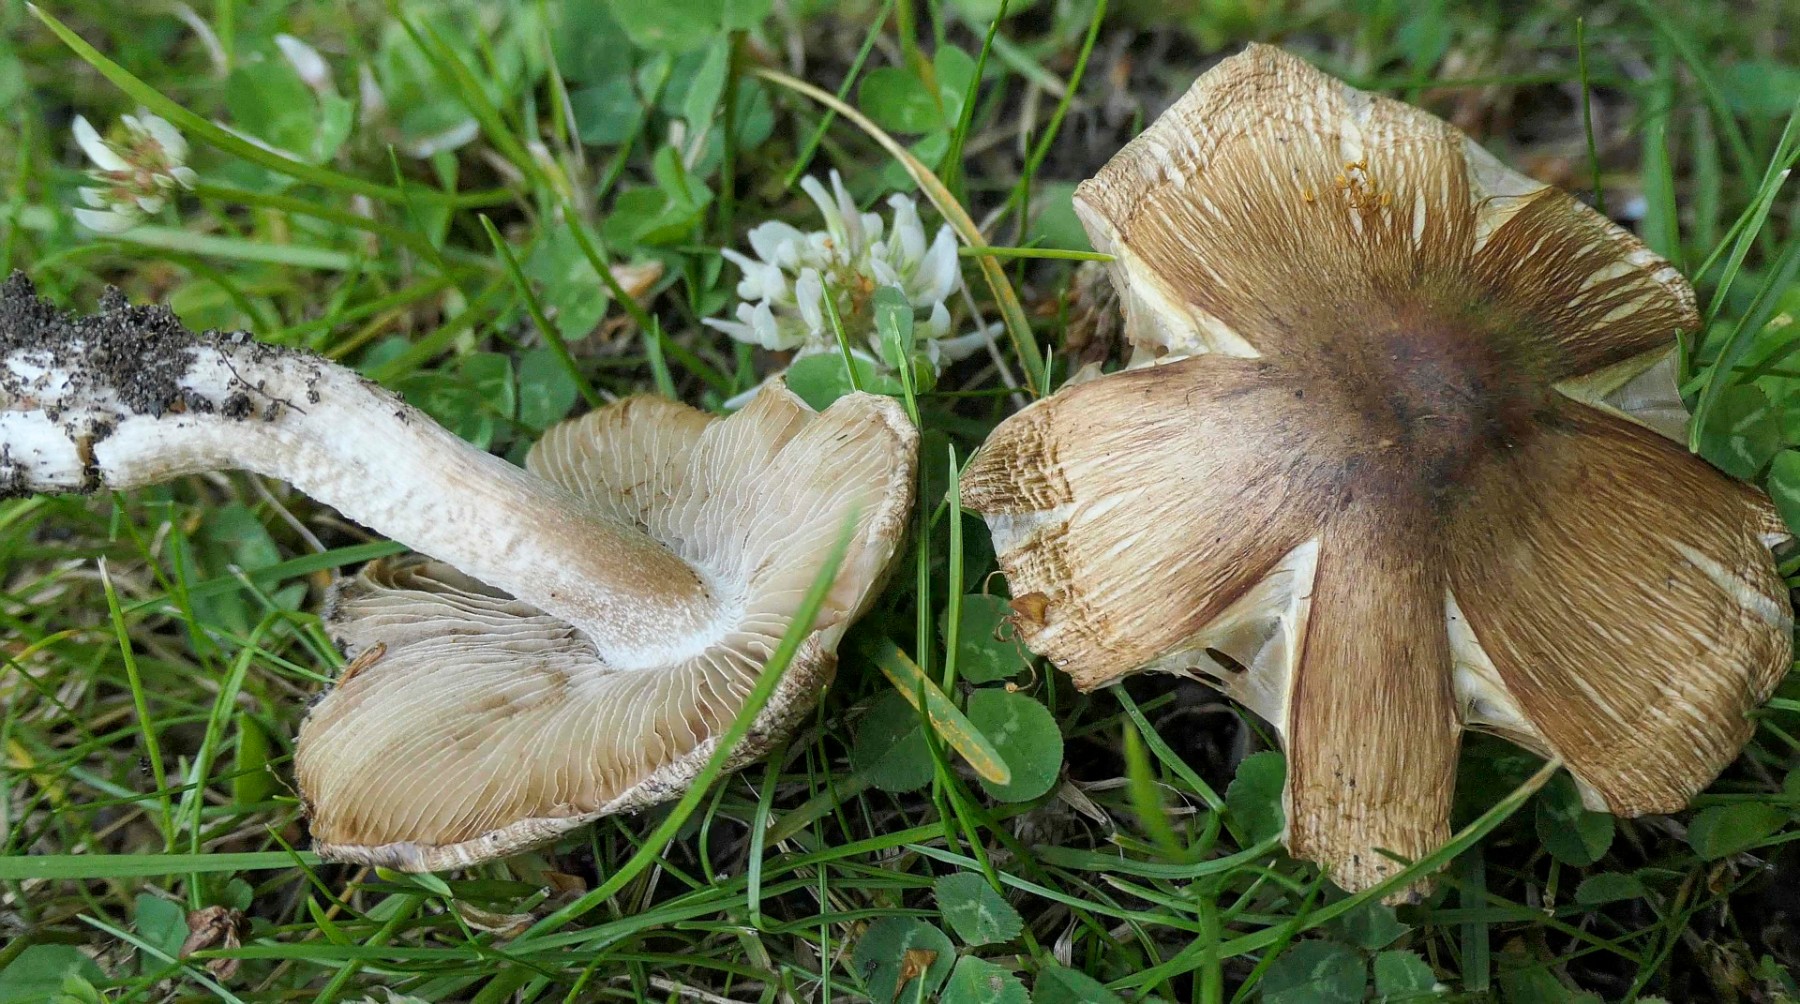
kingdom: Fungi
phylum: Basidiomycota
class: Agaricomycetes
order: Agaricales
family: Inocybaceae
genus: Pseudosperma
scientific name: Pseudosperma
